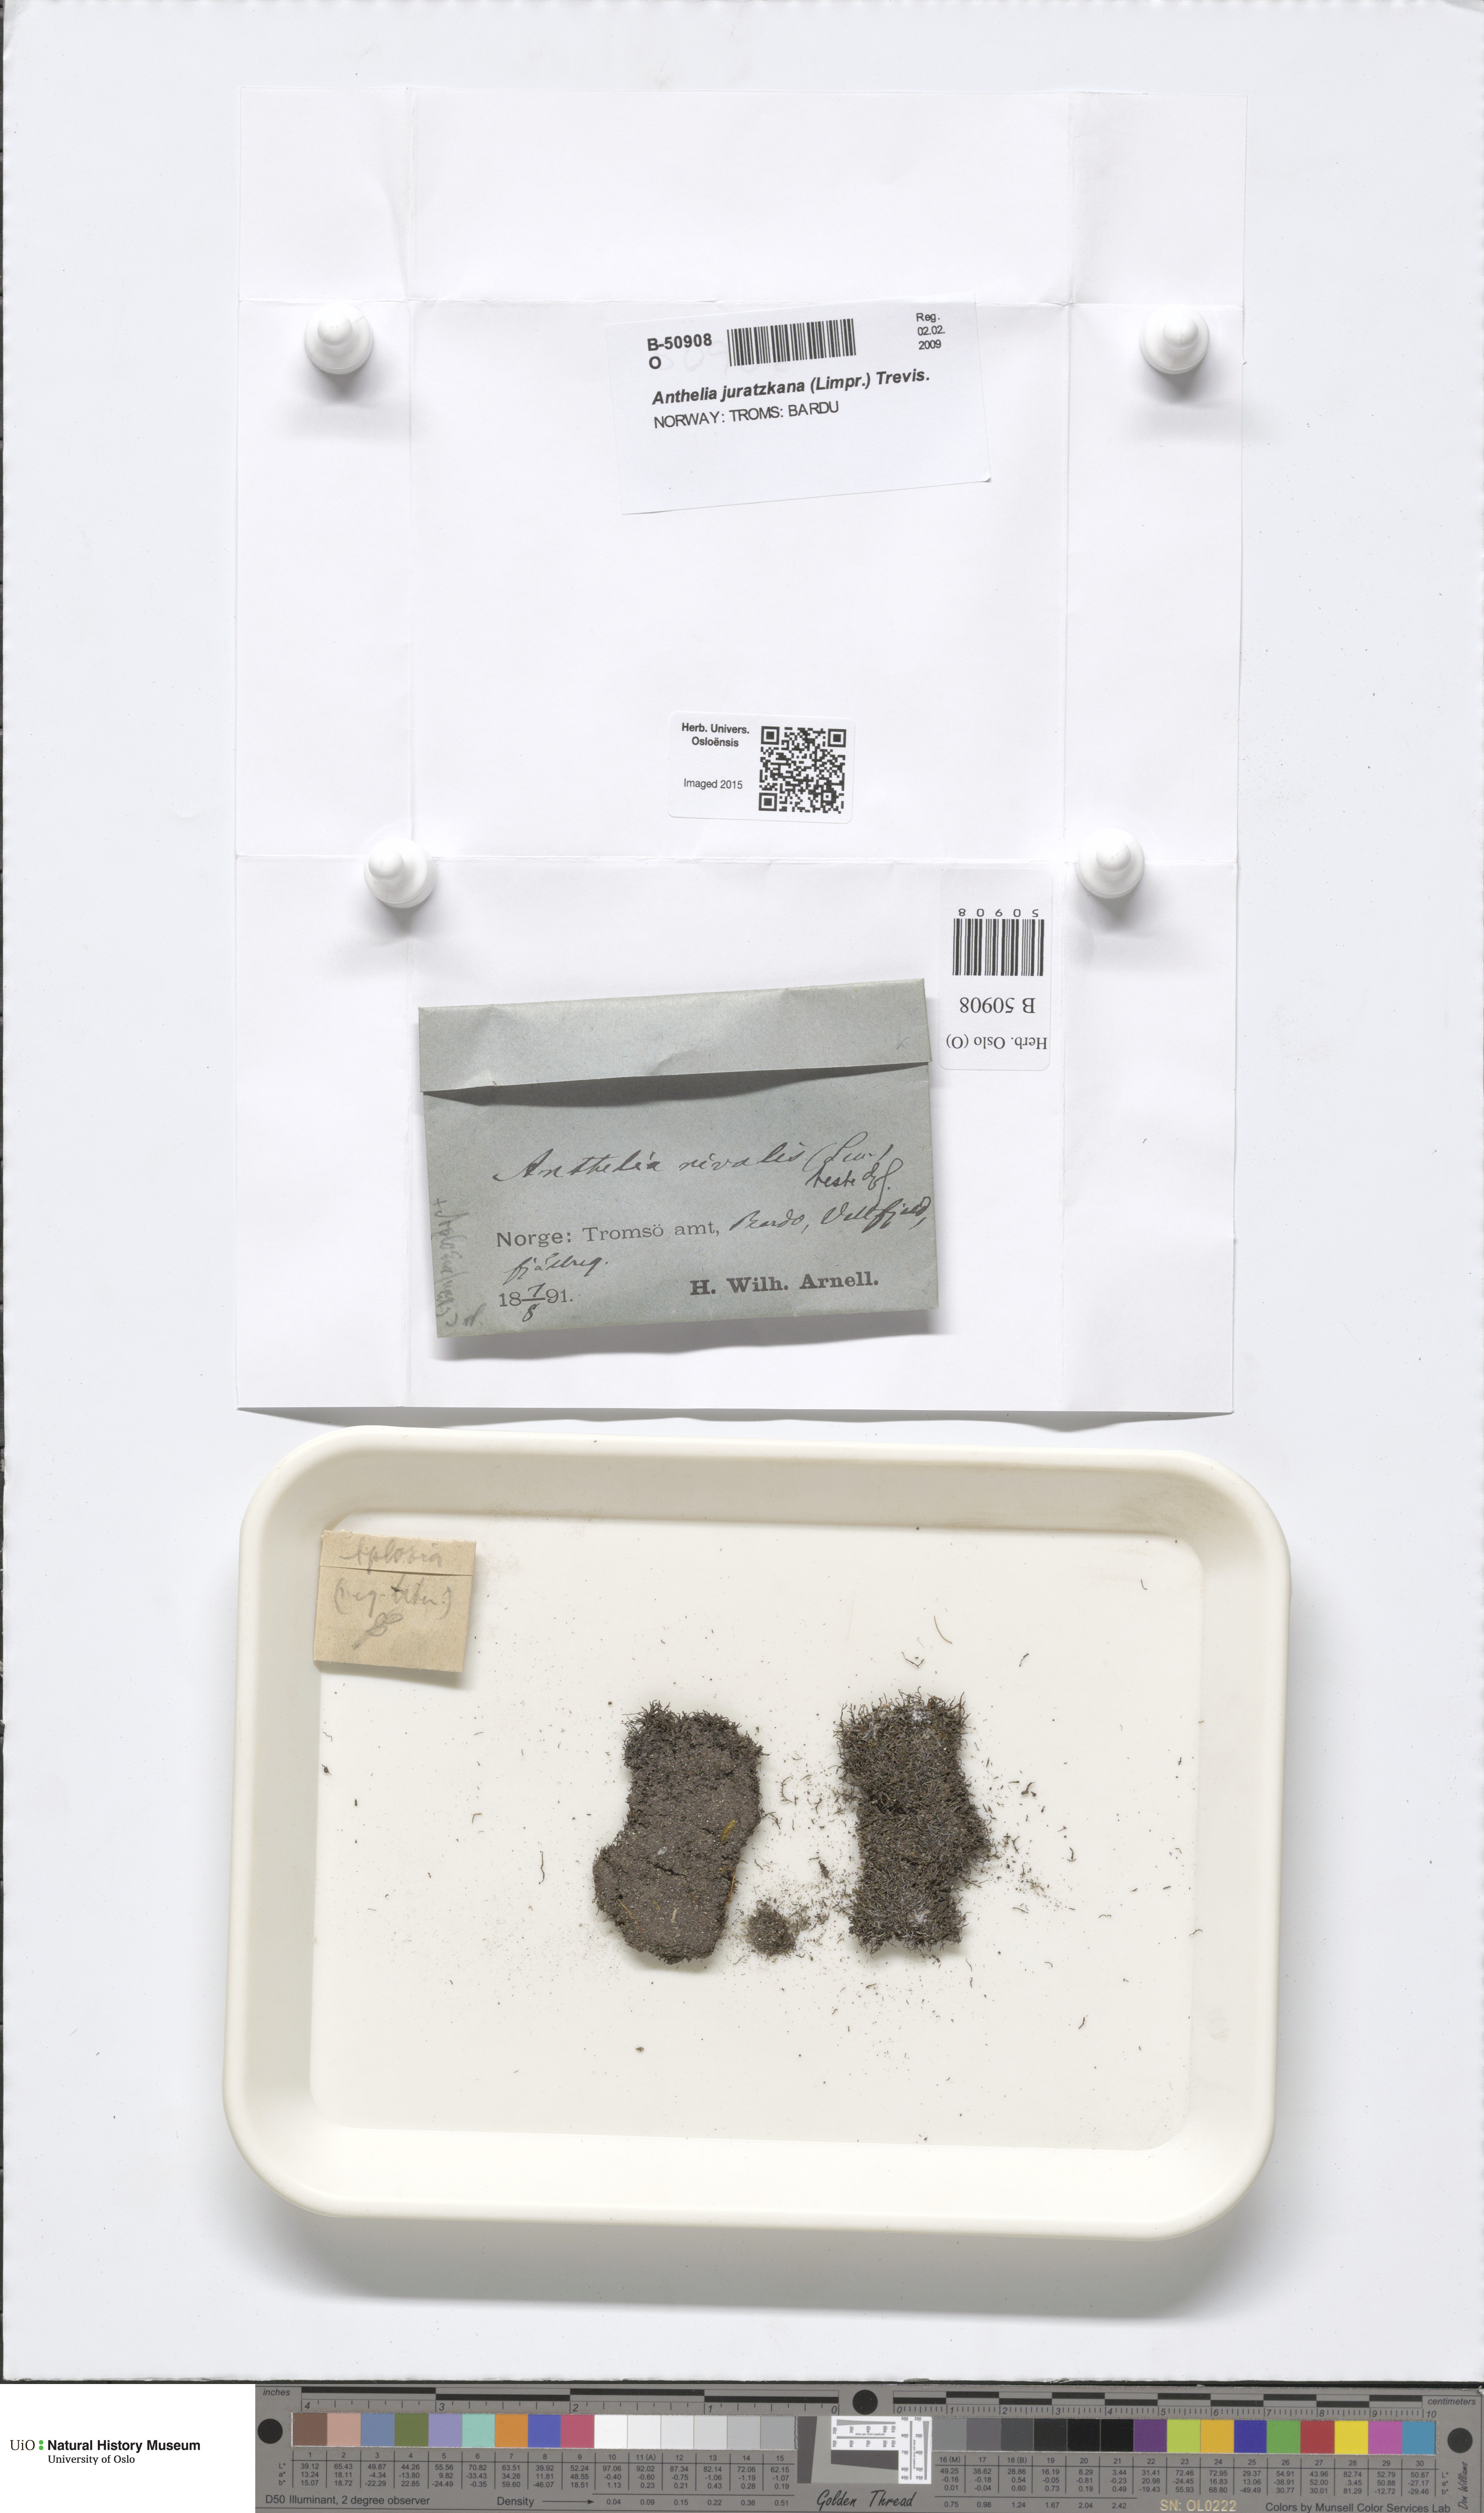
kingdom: Plantae
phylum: Marchantiophyta
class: Jungermanniopsida
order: Jungermanniales
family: Antheliaceae
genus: Anthelia
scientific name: Anthelia juratzkana
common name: Juratzka s silverwort
